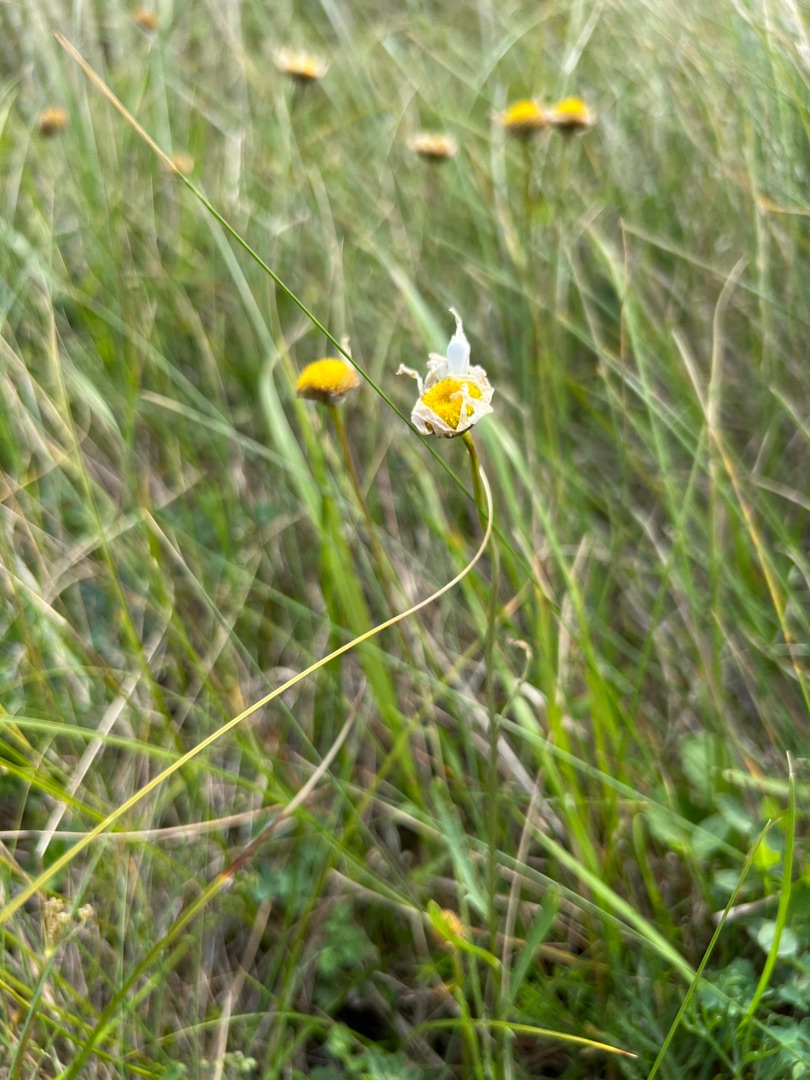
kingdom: Plantae
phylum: Tracheophyta
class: Magnoliopsida
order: Asterales
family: Asteraceae
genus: Leucanthemum
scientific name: Leucanthemum vulgare
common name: Hvid okseøje
